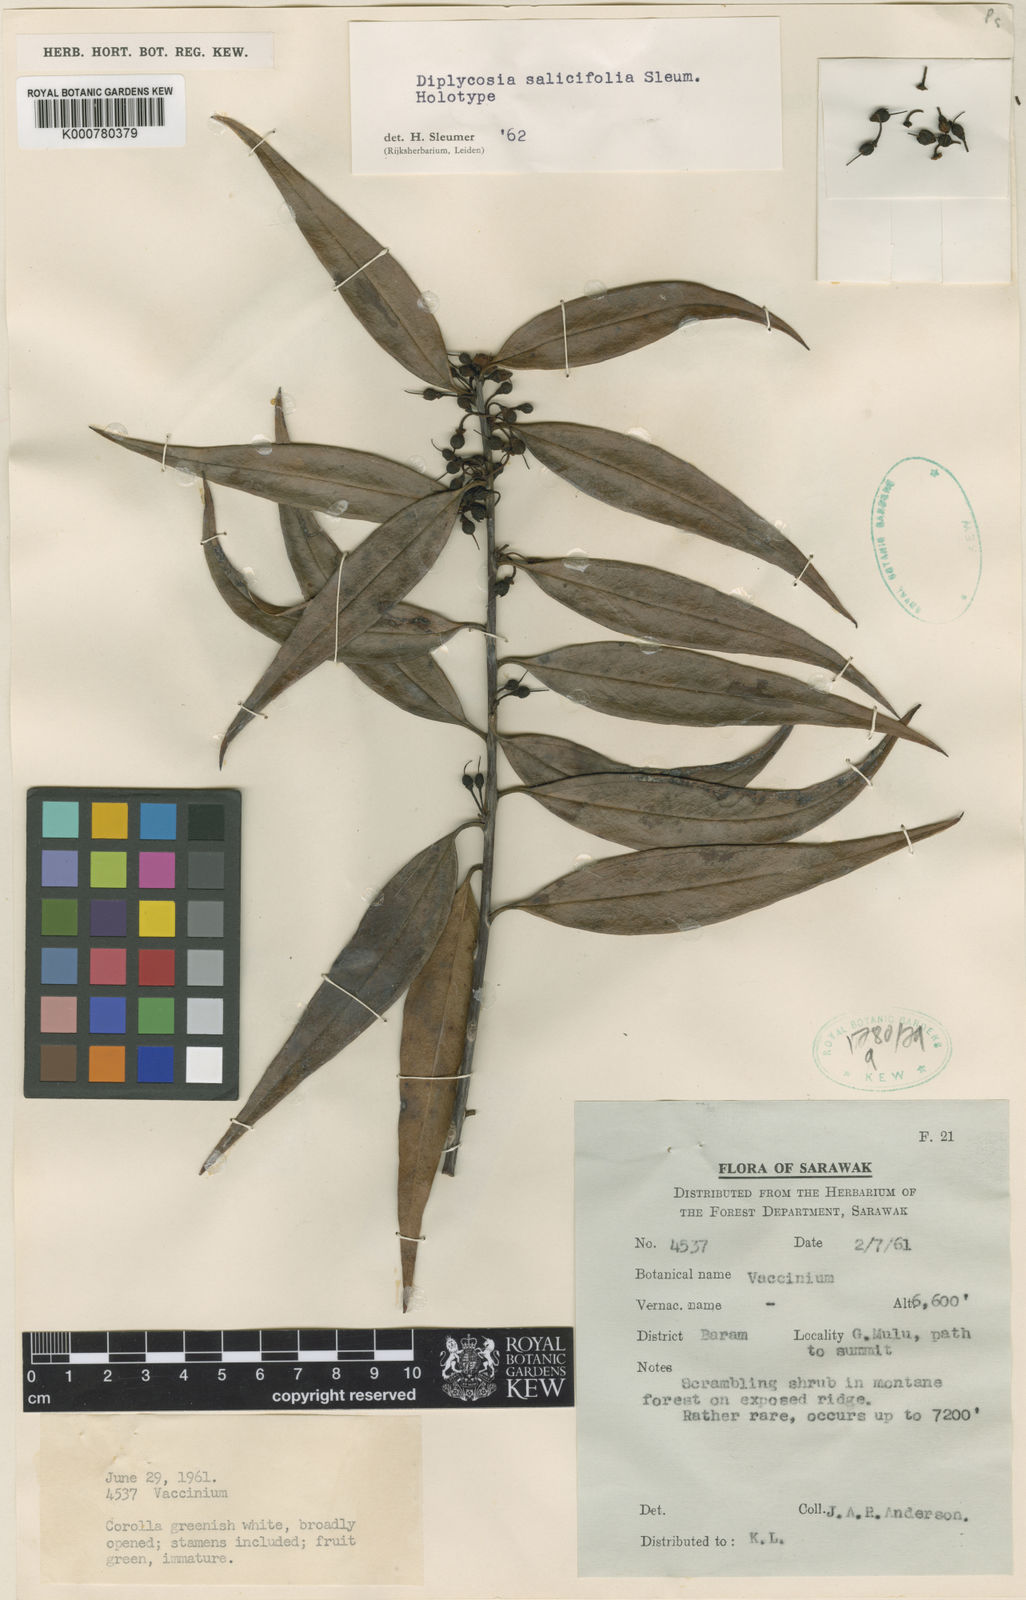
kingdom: Plantae
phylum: Tracheophyta
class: Magnoliopsida
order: Ericales
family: Ericaceae
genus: Gaultheria
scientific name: Gaultheria muluensis
